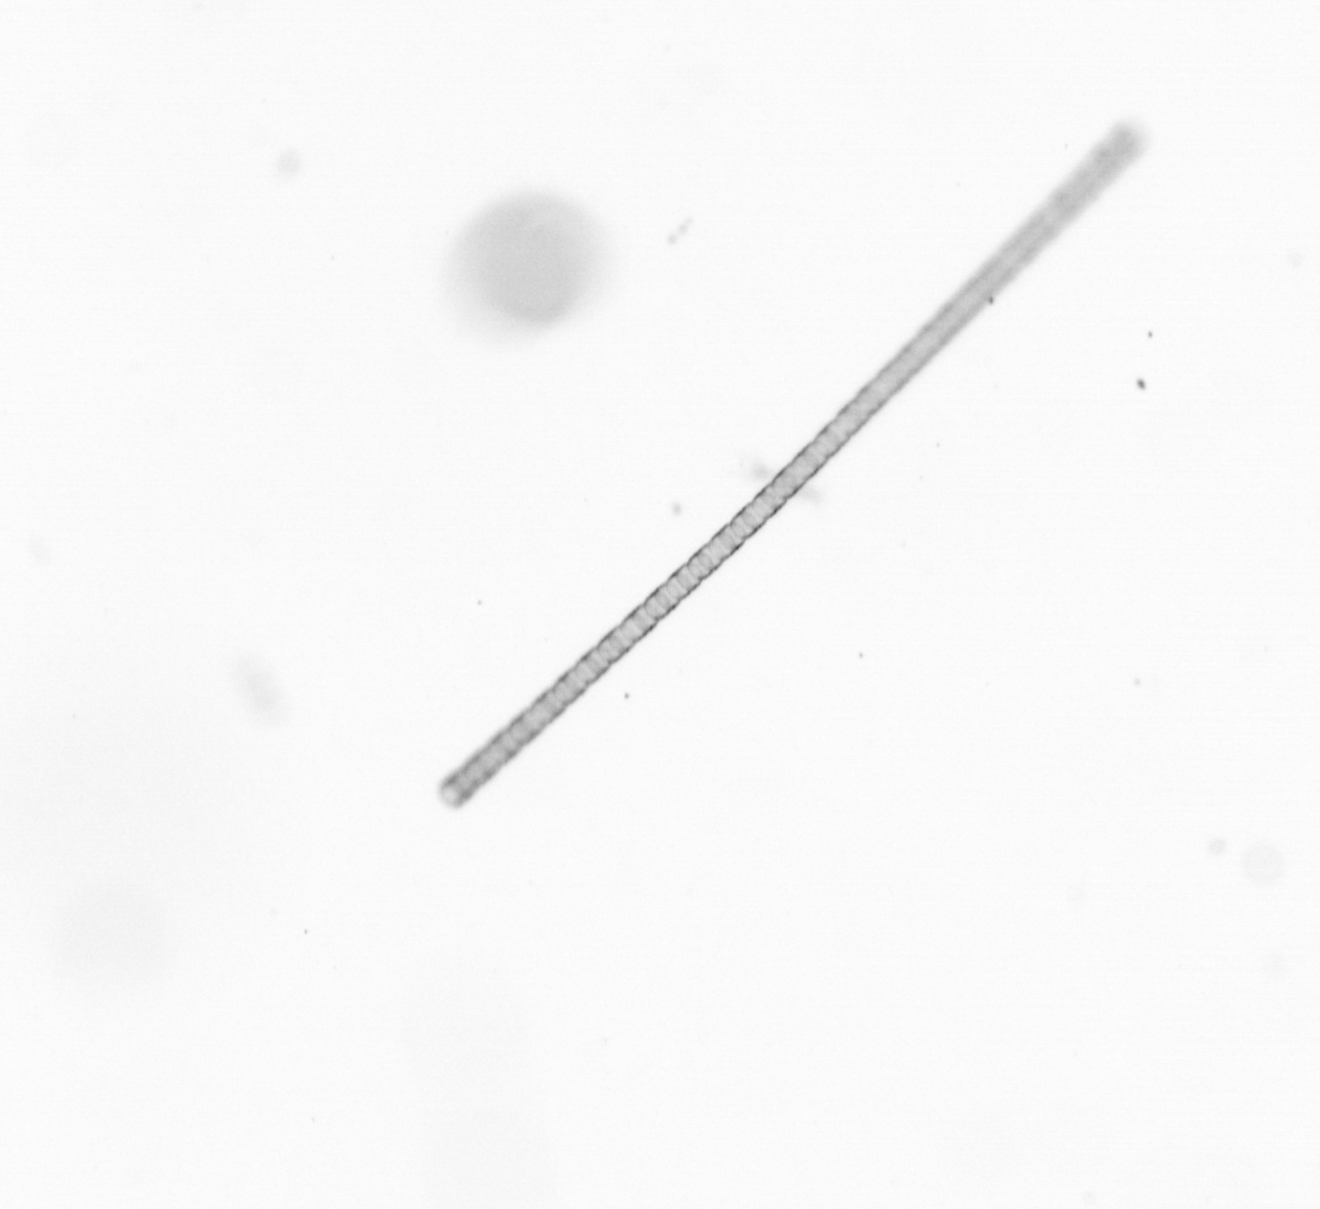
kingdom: Chromista
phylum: Ochrophyta
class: Bacillariophyceae
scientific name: Bacillariophyceae
